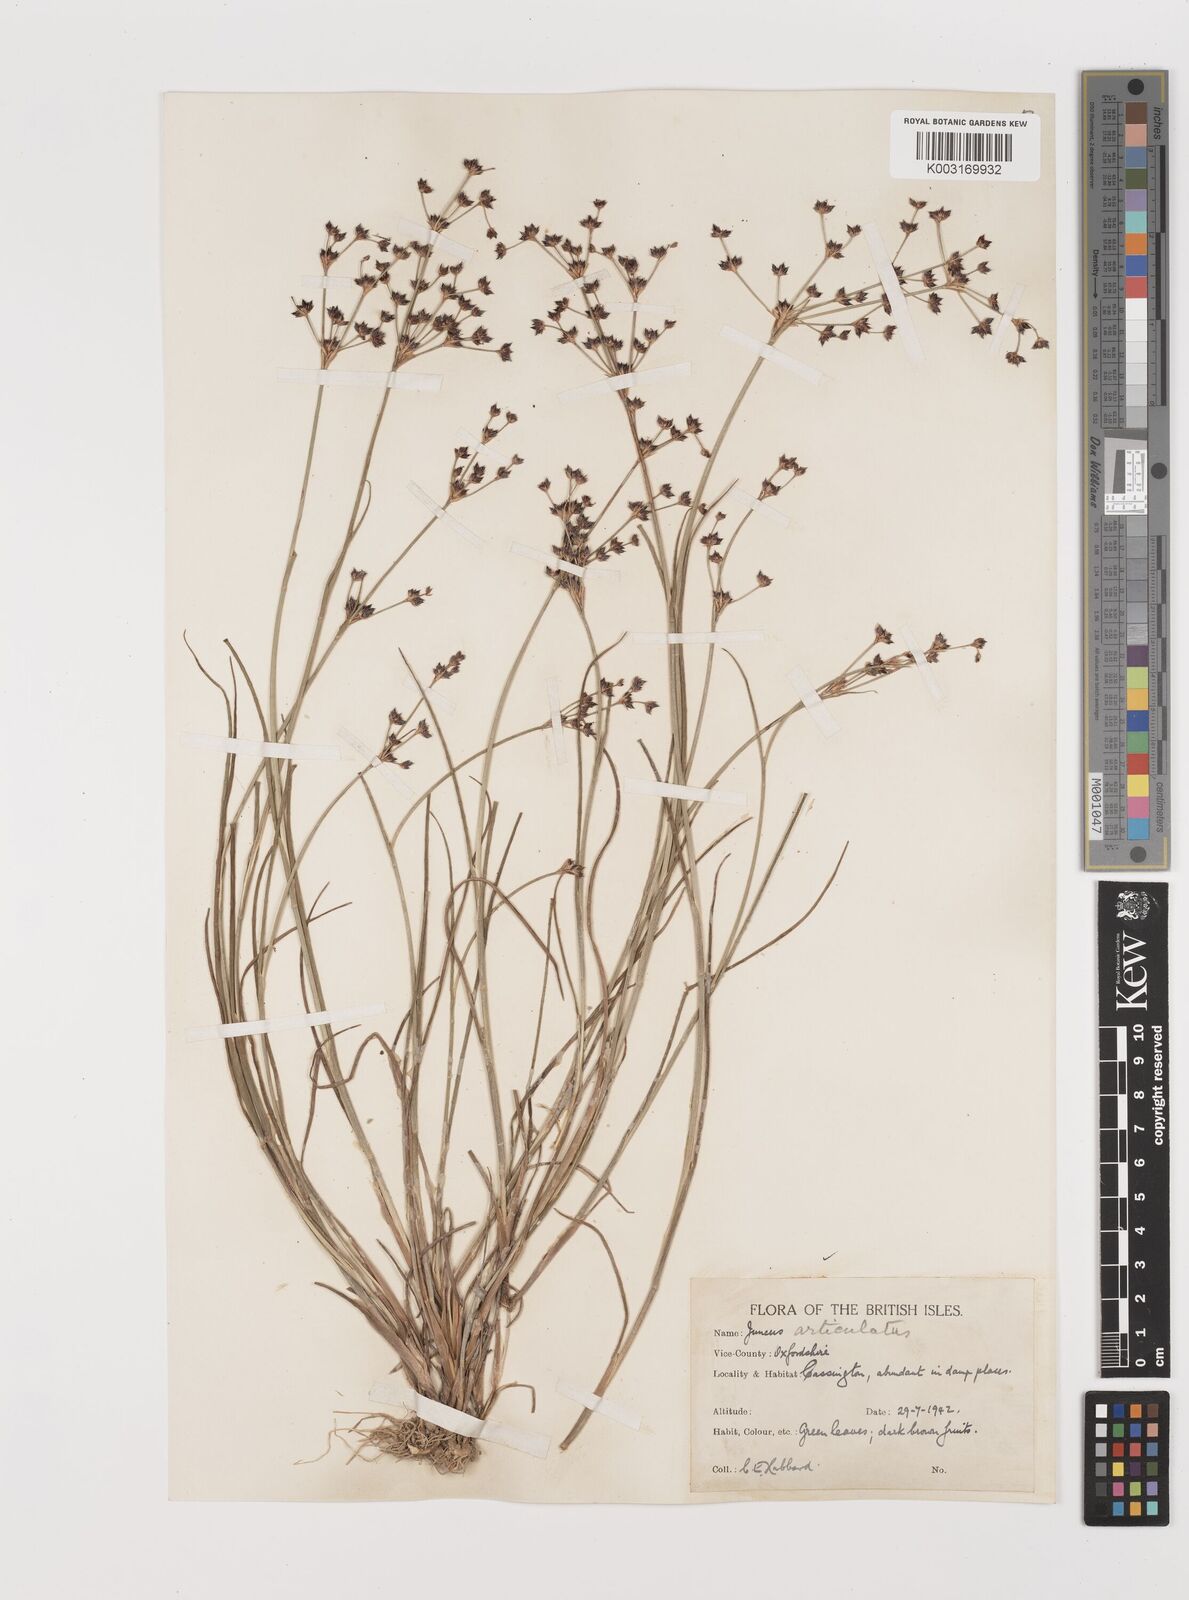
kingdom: Plantae
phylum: Tracheophyta
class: Liliopsida
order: Poales
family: Juncaceae
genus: Juncus
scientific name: Juncus articulatus
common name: Jointed rush
